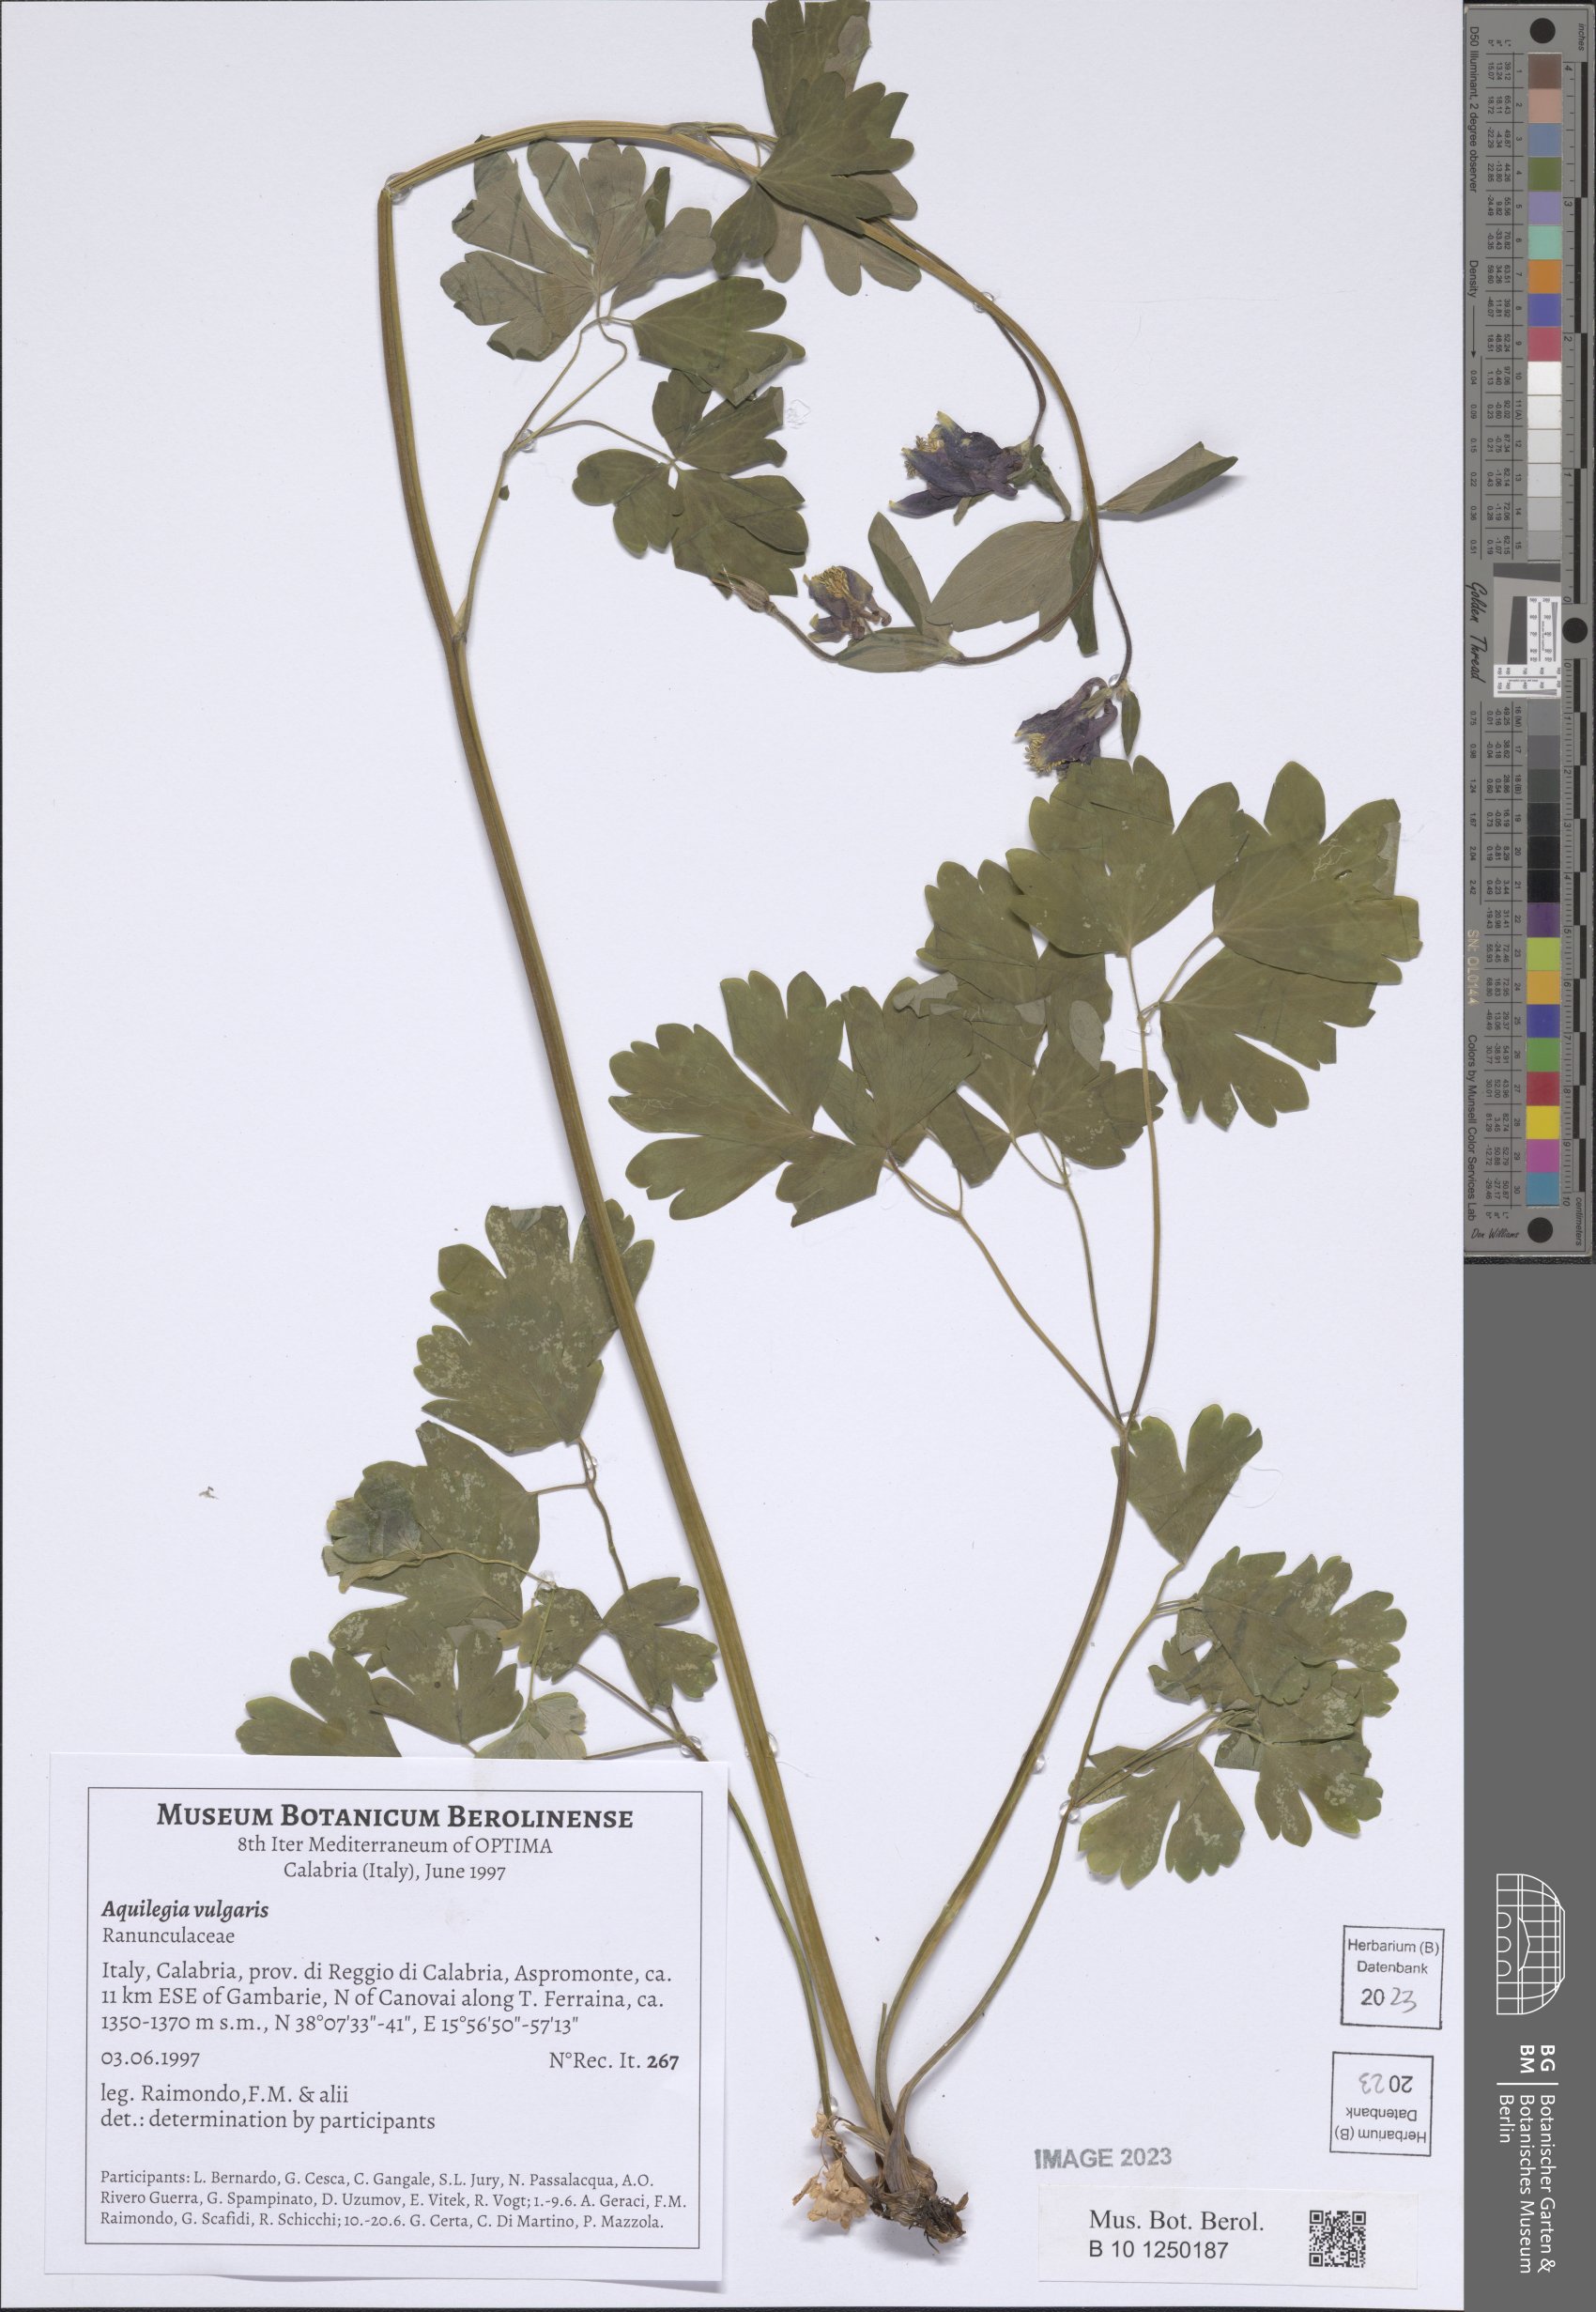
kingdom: Plantae
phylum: Tracheophyta
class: Magnoliopsida
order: Ranunculales
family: Ranunculaceae
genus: Aquilegia
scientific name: Aquilegia vulgaris
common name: Columbine
